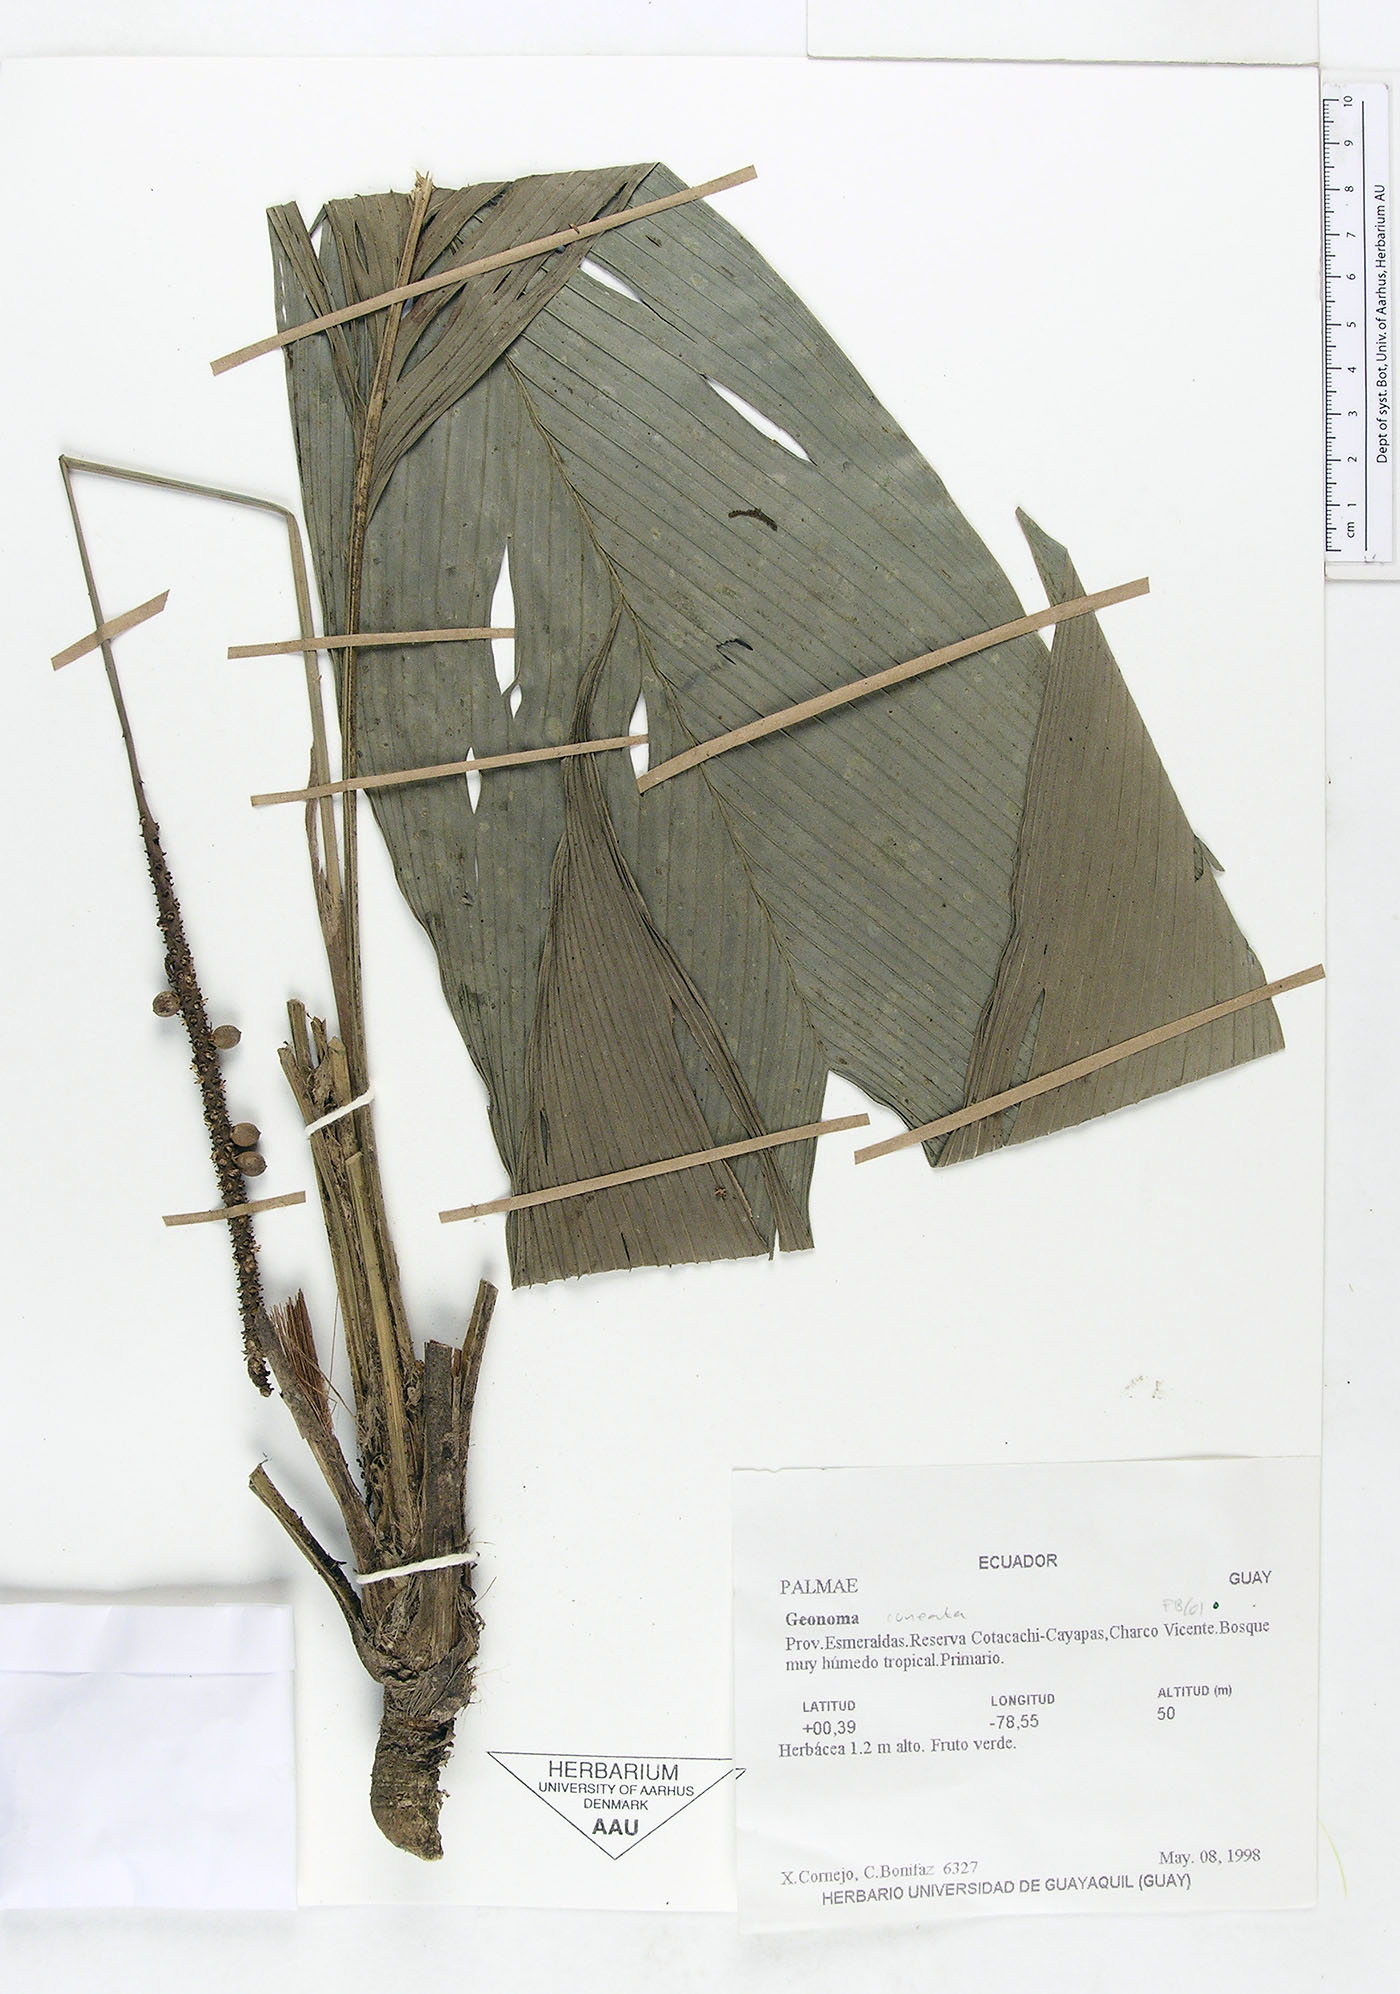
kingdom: Plantae
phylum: Tracheophyta
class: Liliopsida
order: Arecales
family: Arecaceae
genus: Geonoma
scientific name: Geonoma cuneata
